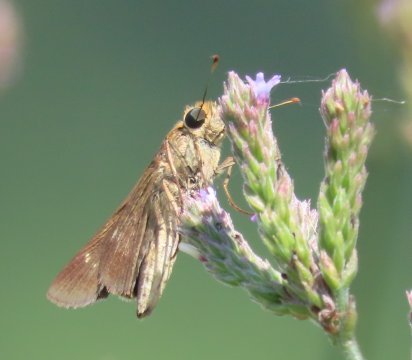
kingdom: Animalia
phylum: Arthropoda
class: Insecta
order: Lepidoptera
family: Hesperiidae
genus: Panoquina
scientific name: Panoquina ocola
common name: Ocola Skipper
